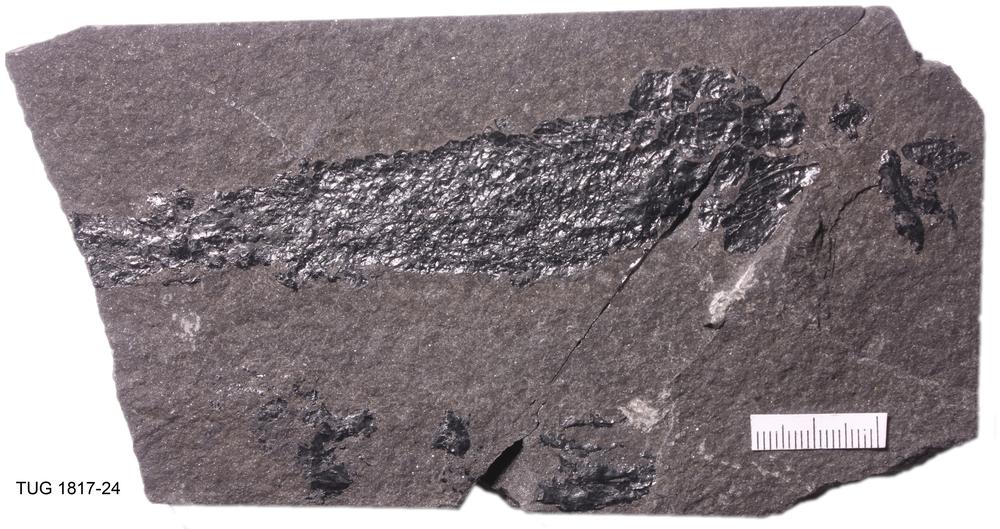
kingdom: Animalia
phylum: Chordata
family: Thursiidae
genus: Thursius
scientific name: Thursius Dipterus macrolepidotus
